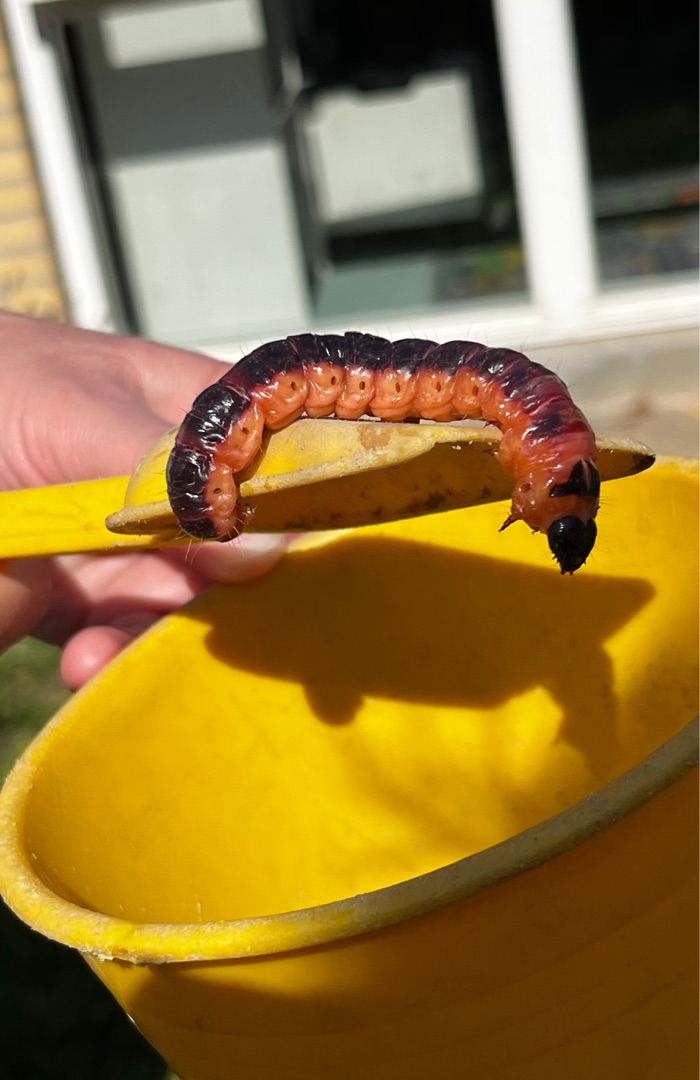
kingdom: Animalia
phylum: Arthropoda
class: Insecta
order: Lepidoptera
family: Cossidae
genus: Cossus
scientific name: Cossus cossus
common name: Pileborer
